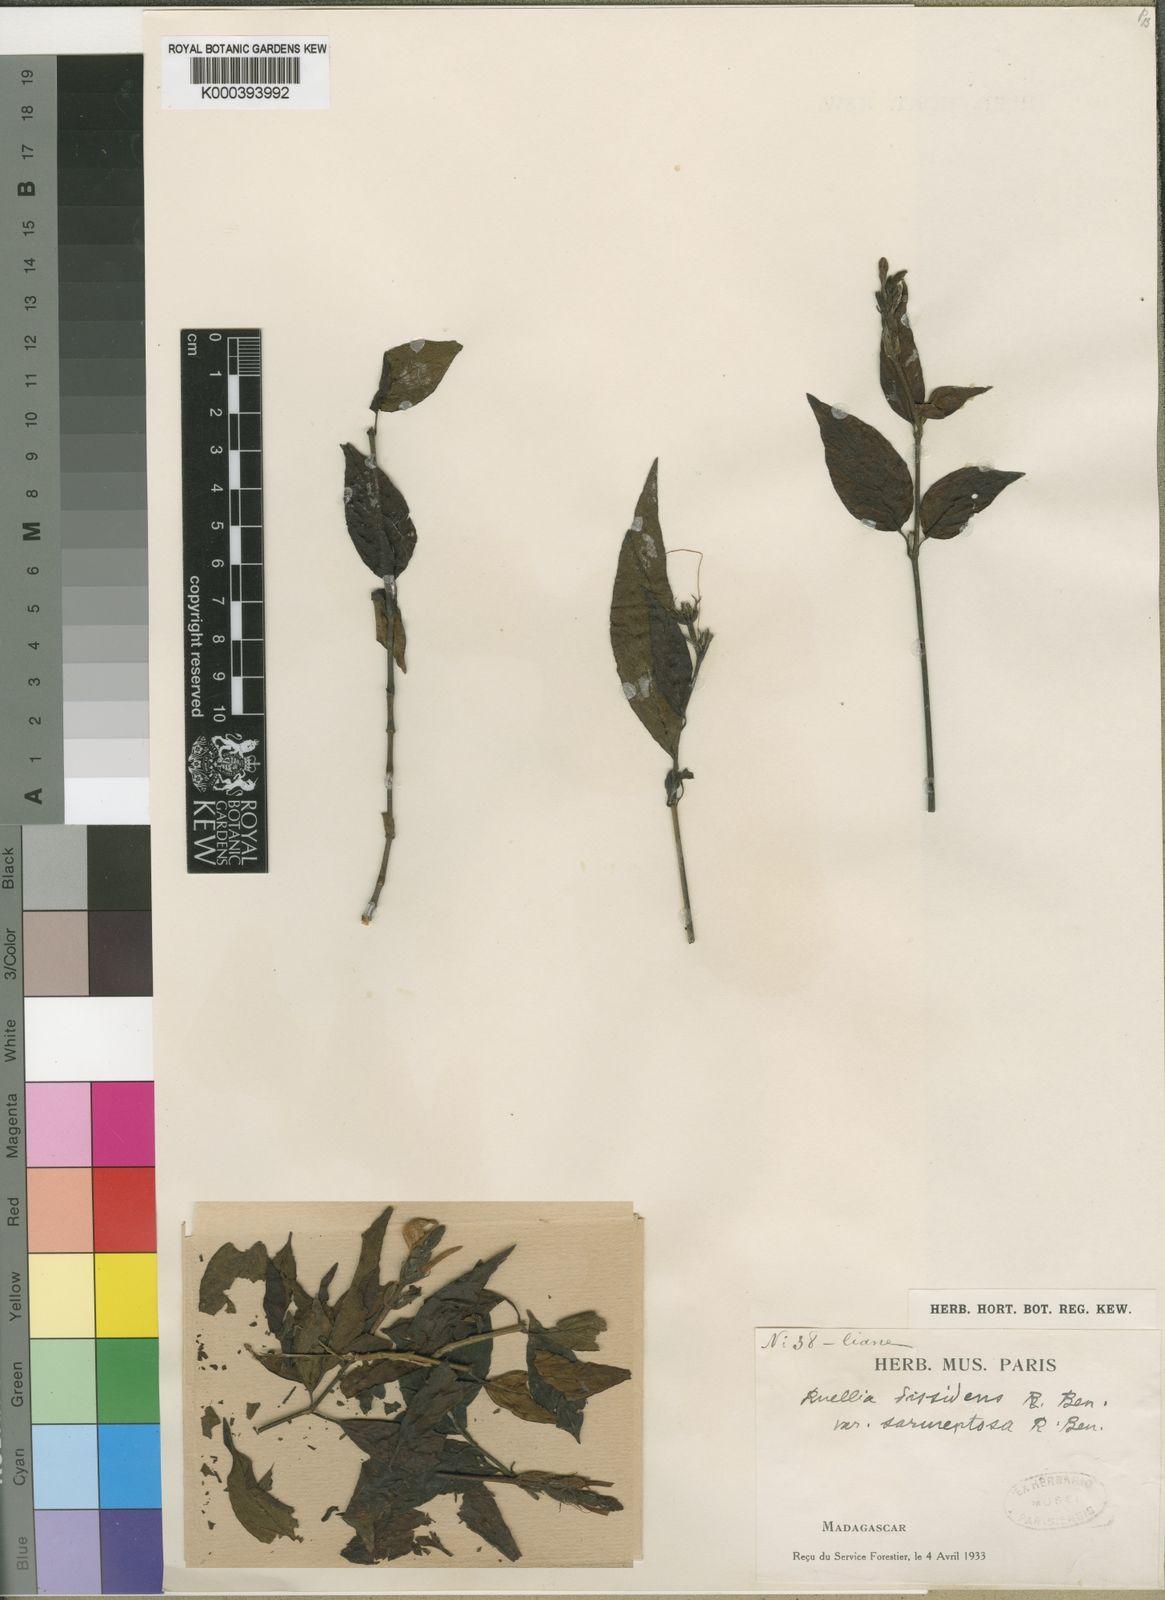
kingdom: Plantae
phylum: Tracheophyta
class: Magnoliopsida
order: Lamiales
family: Acanthaceae
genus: Ruellia
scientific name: Ruellia dissidens
